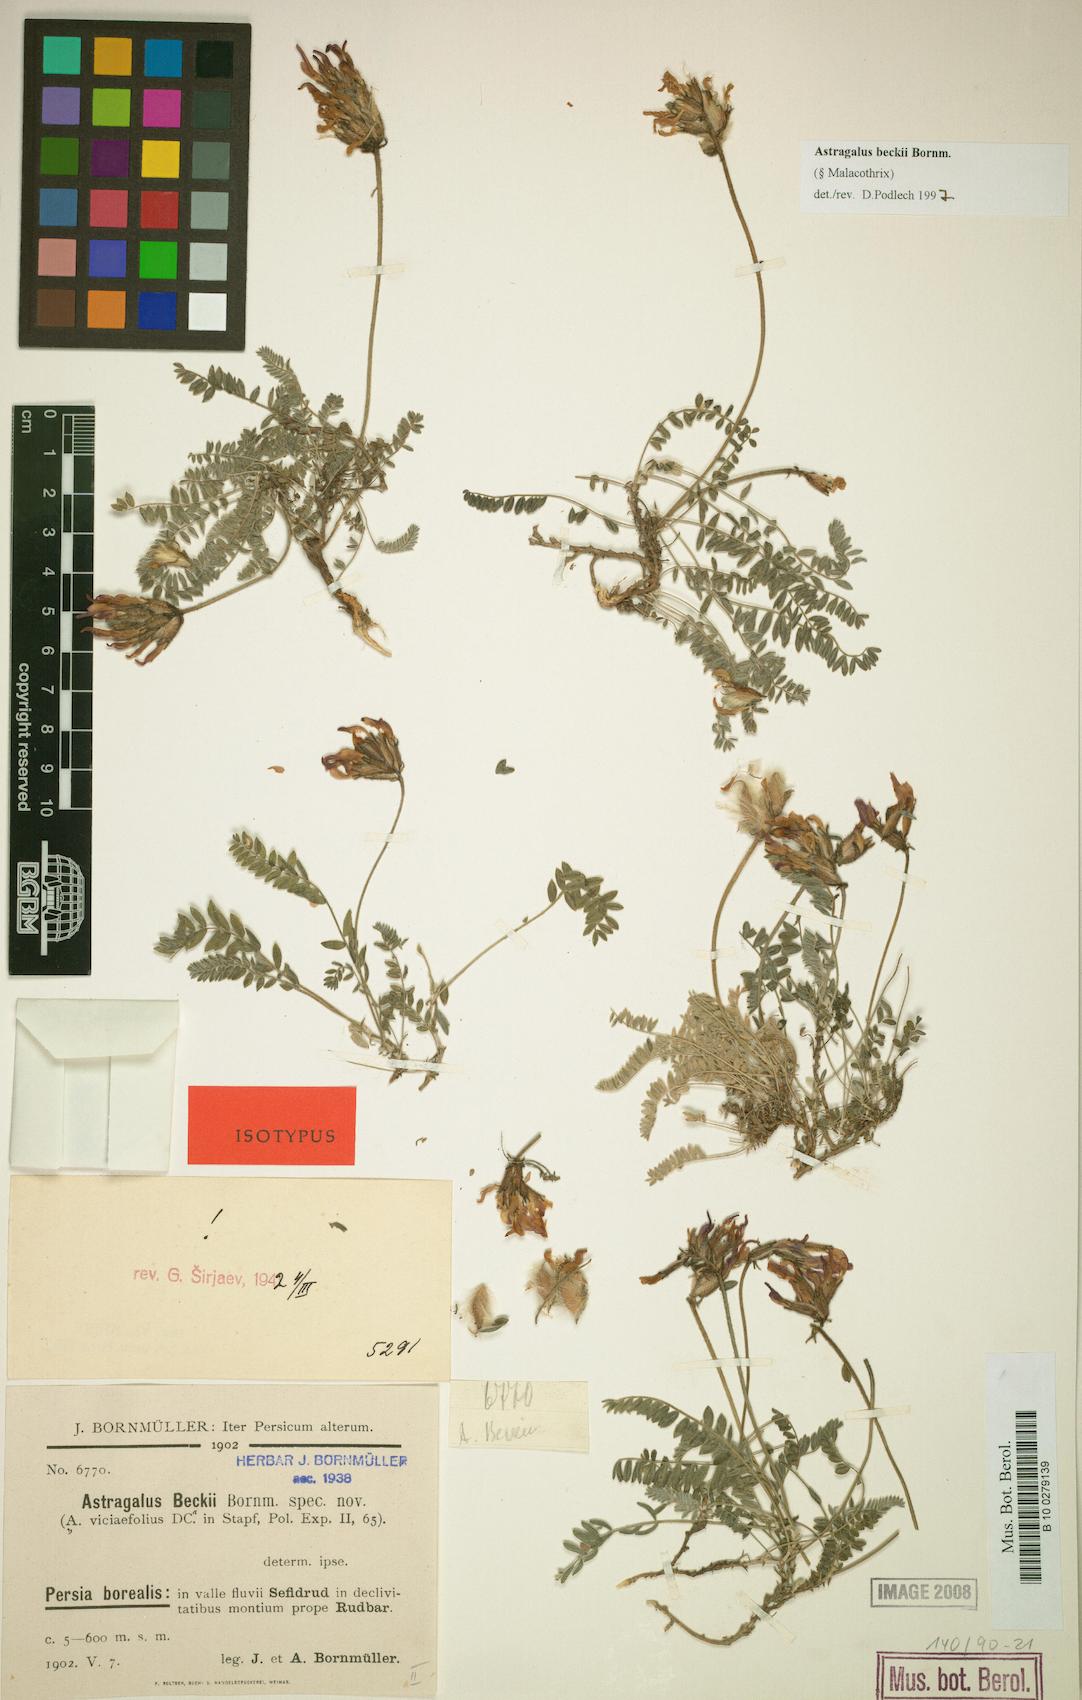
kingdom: Plantae
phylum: Tracheophyta
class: Magnoliopsida
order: Fabales
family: Fabaceae
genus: Astragalus
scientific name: Astragalus beckii
